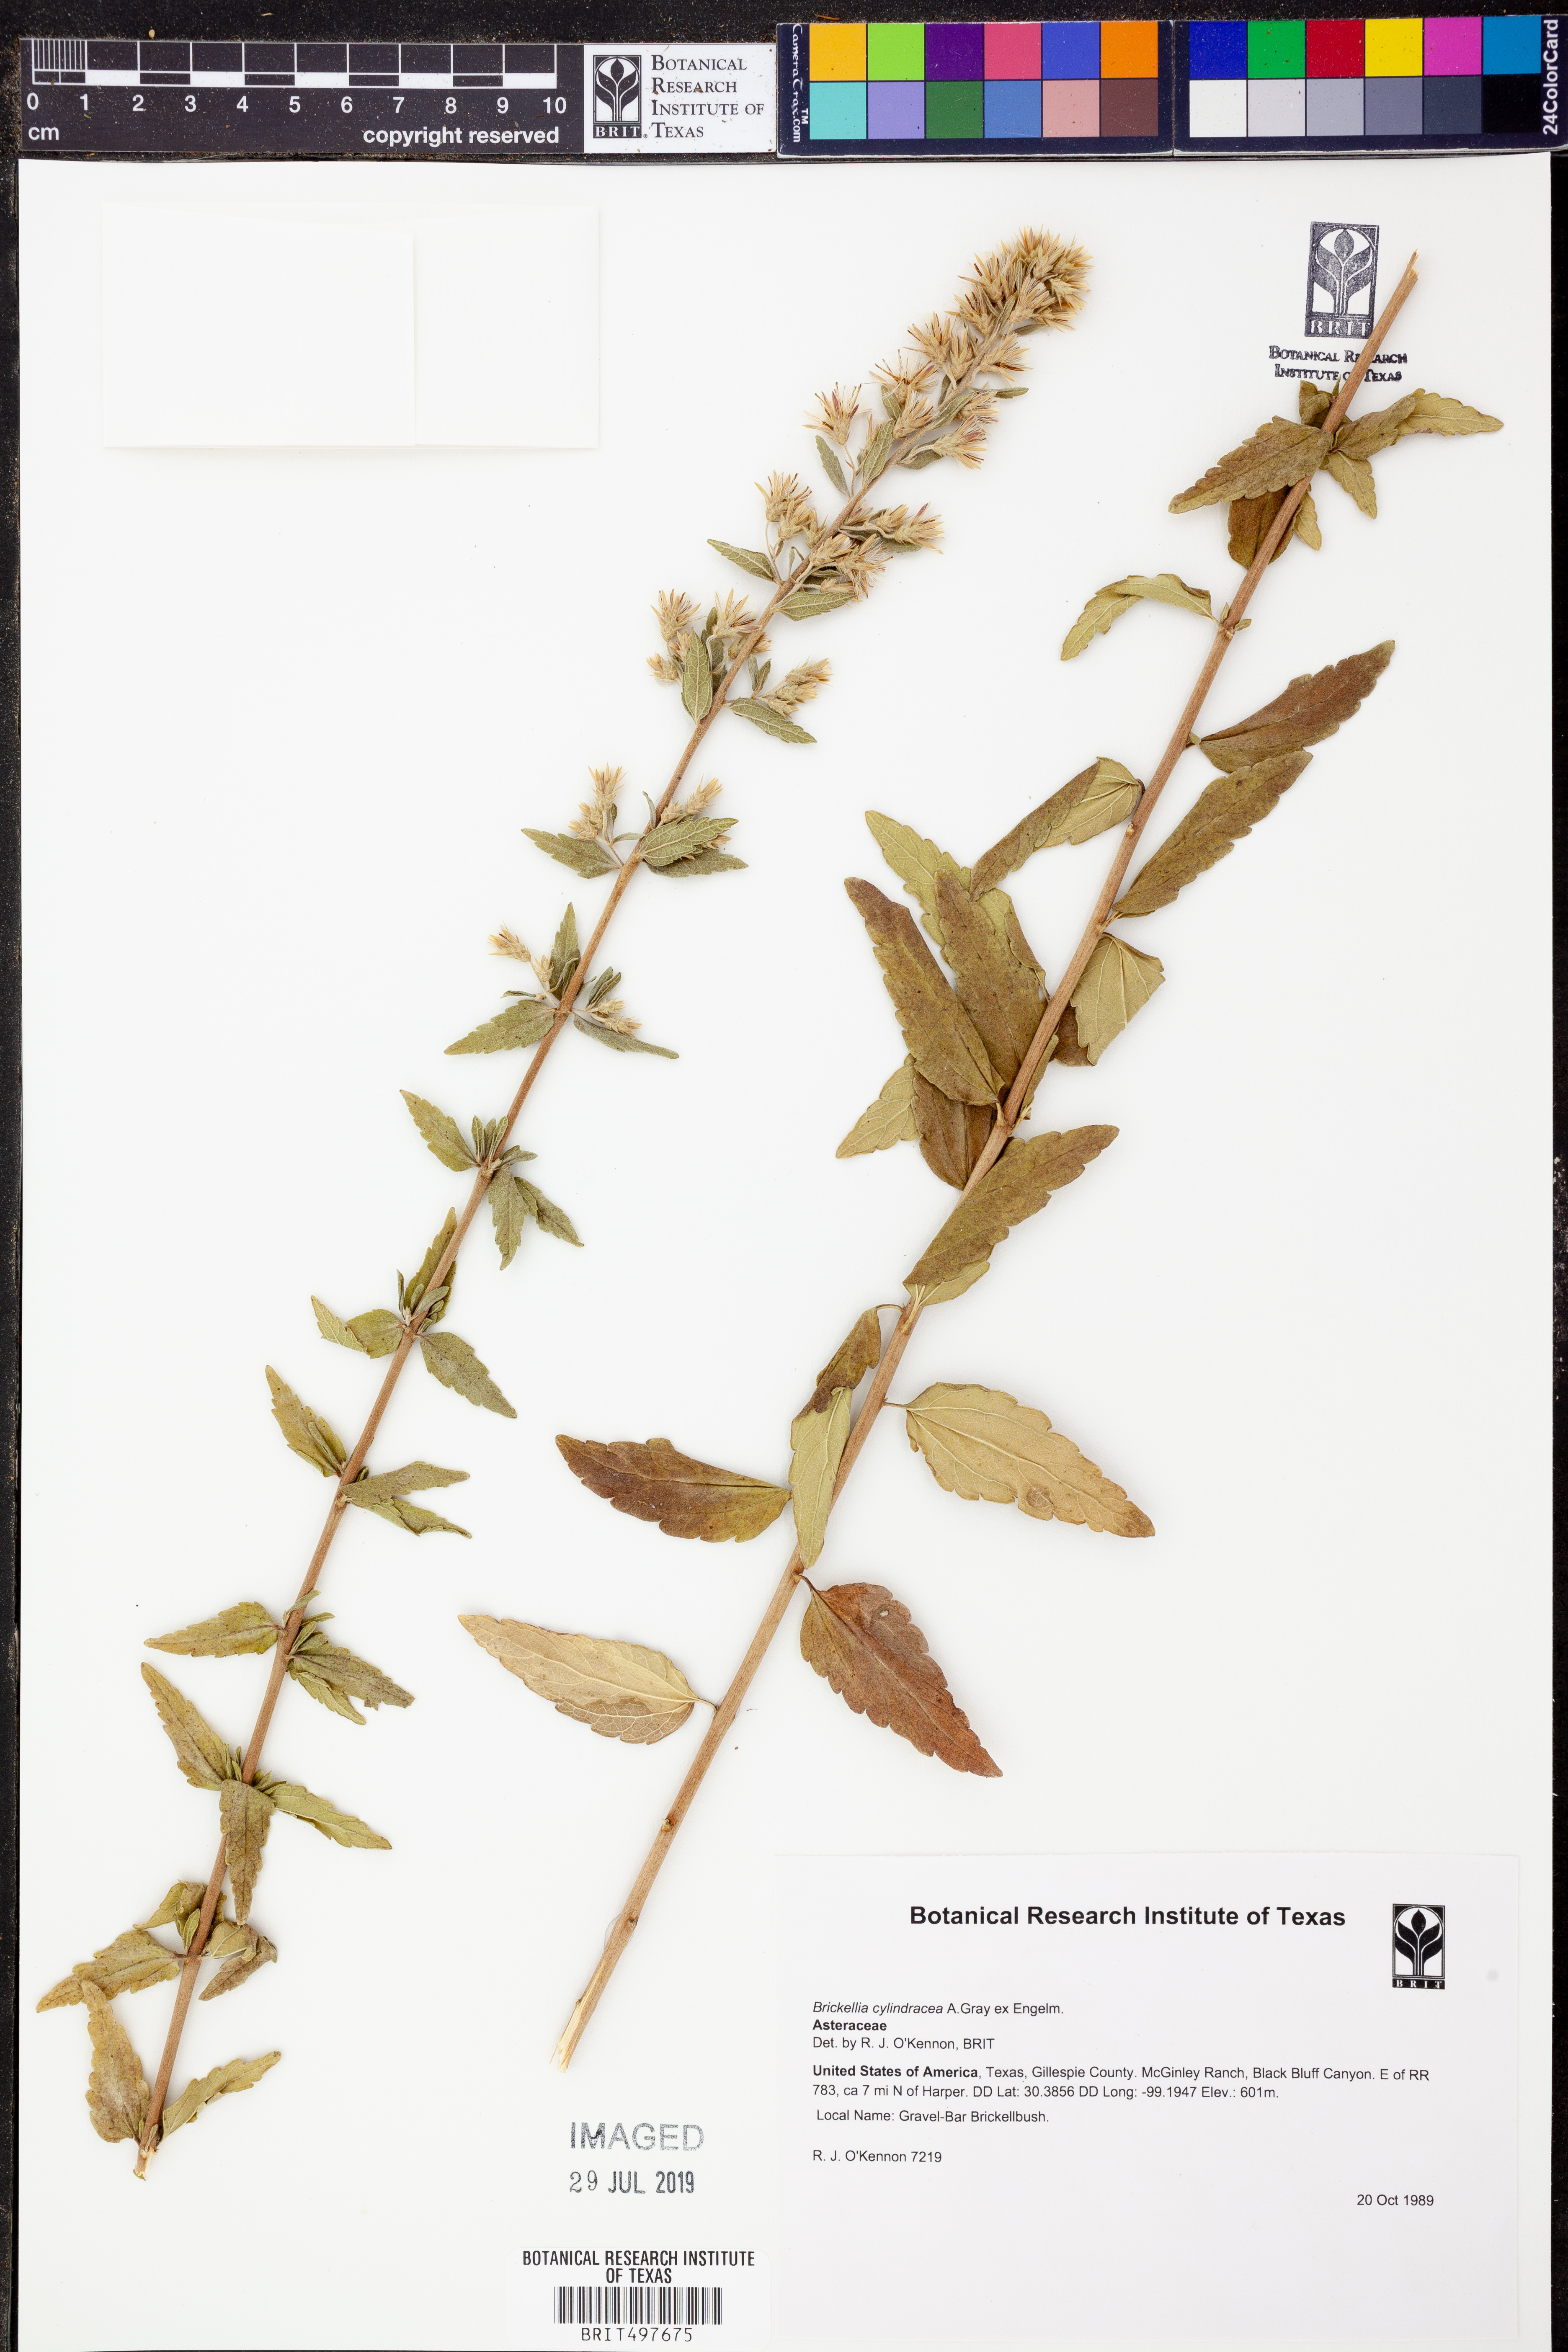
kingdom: Plantae
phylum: Tracheophyta
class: Magnoliopsida
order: Asterales
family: Asteraceae
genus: Brickellia
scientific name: Brickellia cylindracea
